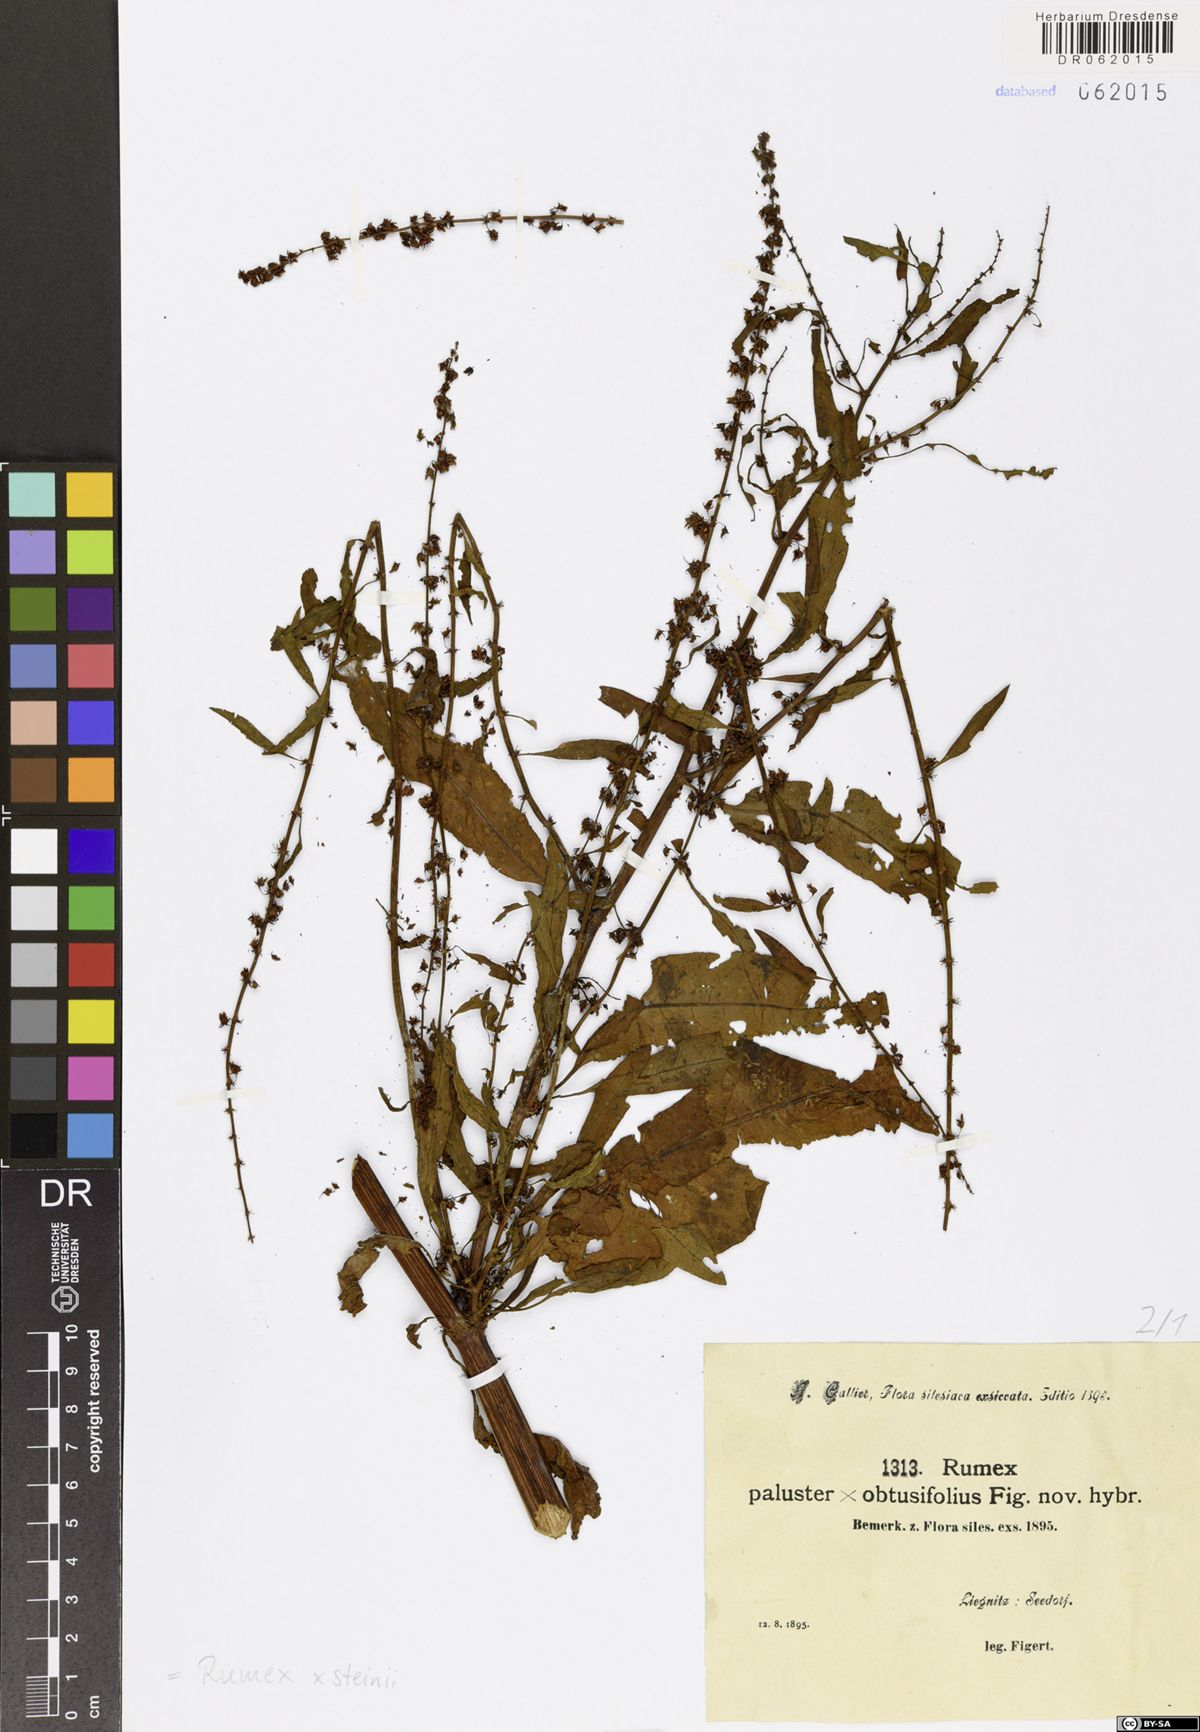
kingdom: Plantae
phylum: Tracheophyta
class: Magnoliopsida
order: Caryophyllales
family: Polygonaceae
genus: Rumex
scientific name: Rumex steinii
